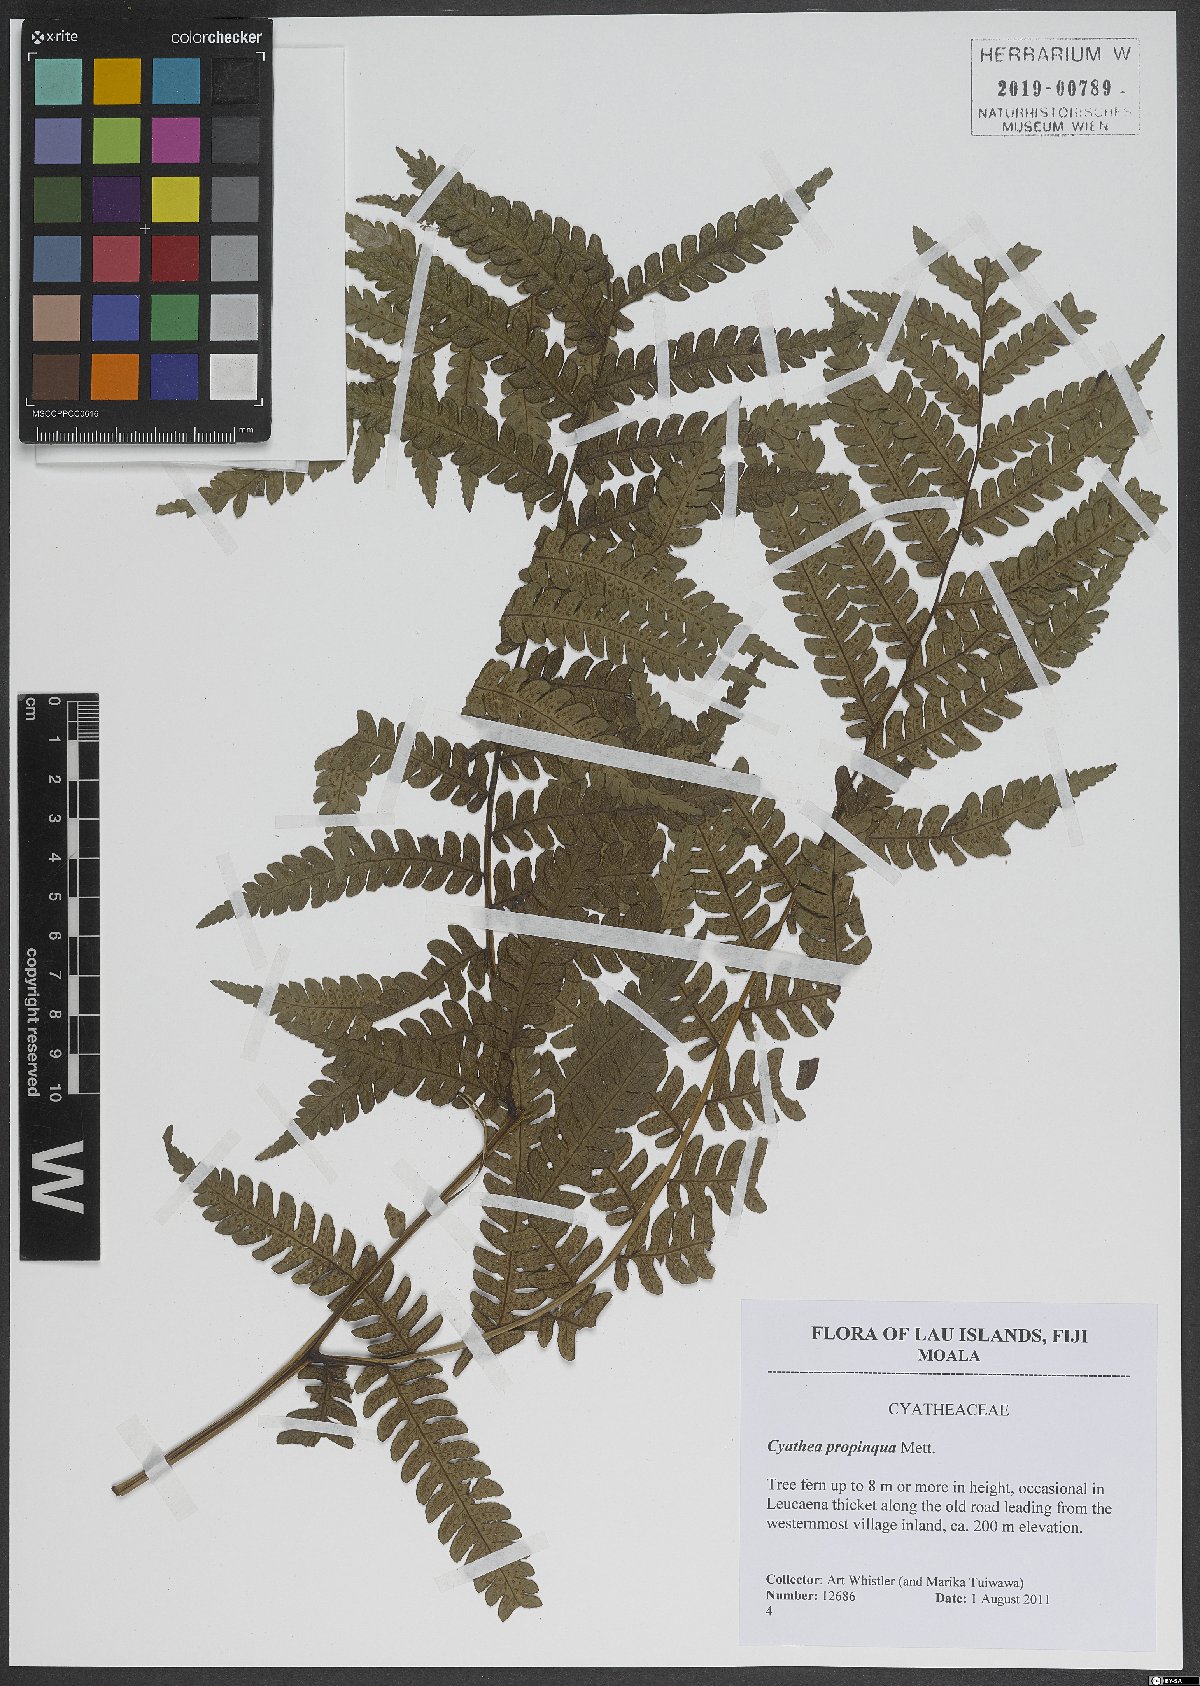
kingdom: Plantae
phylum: Tracheophyta
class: Polypodiopsida
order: Cyatheales
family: Cyatheaceae
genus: Sphaeropteris
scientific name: Sphaeropteris propinqua
